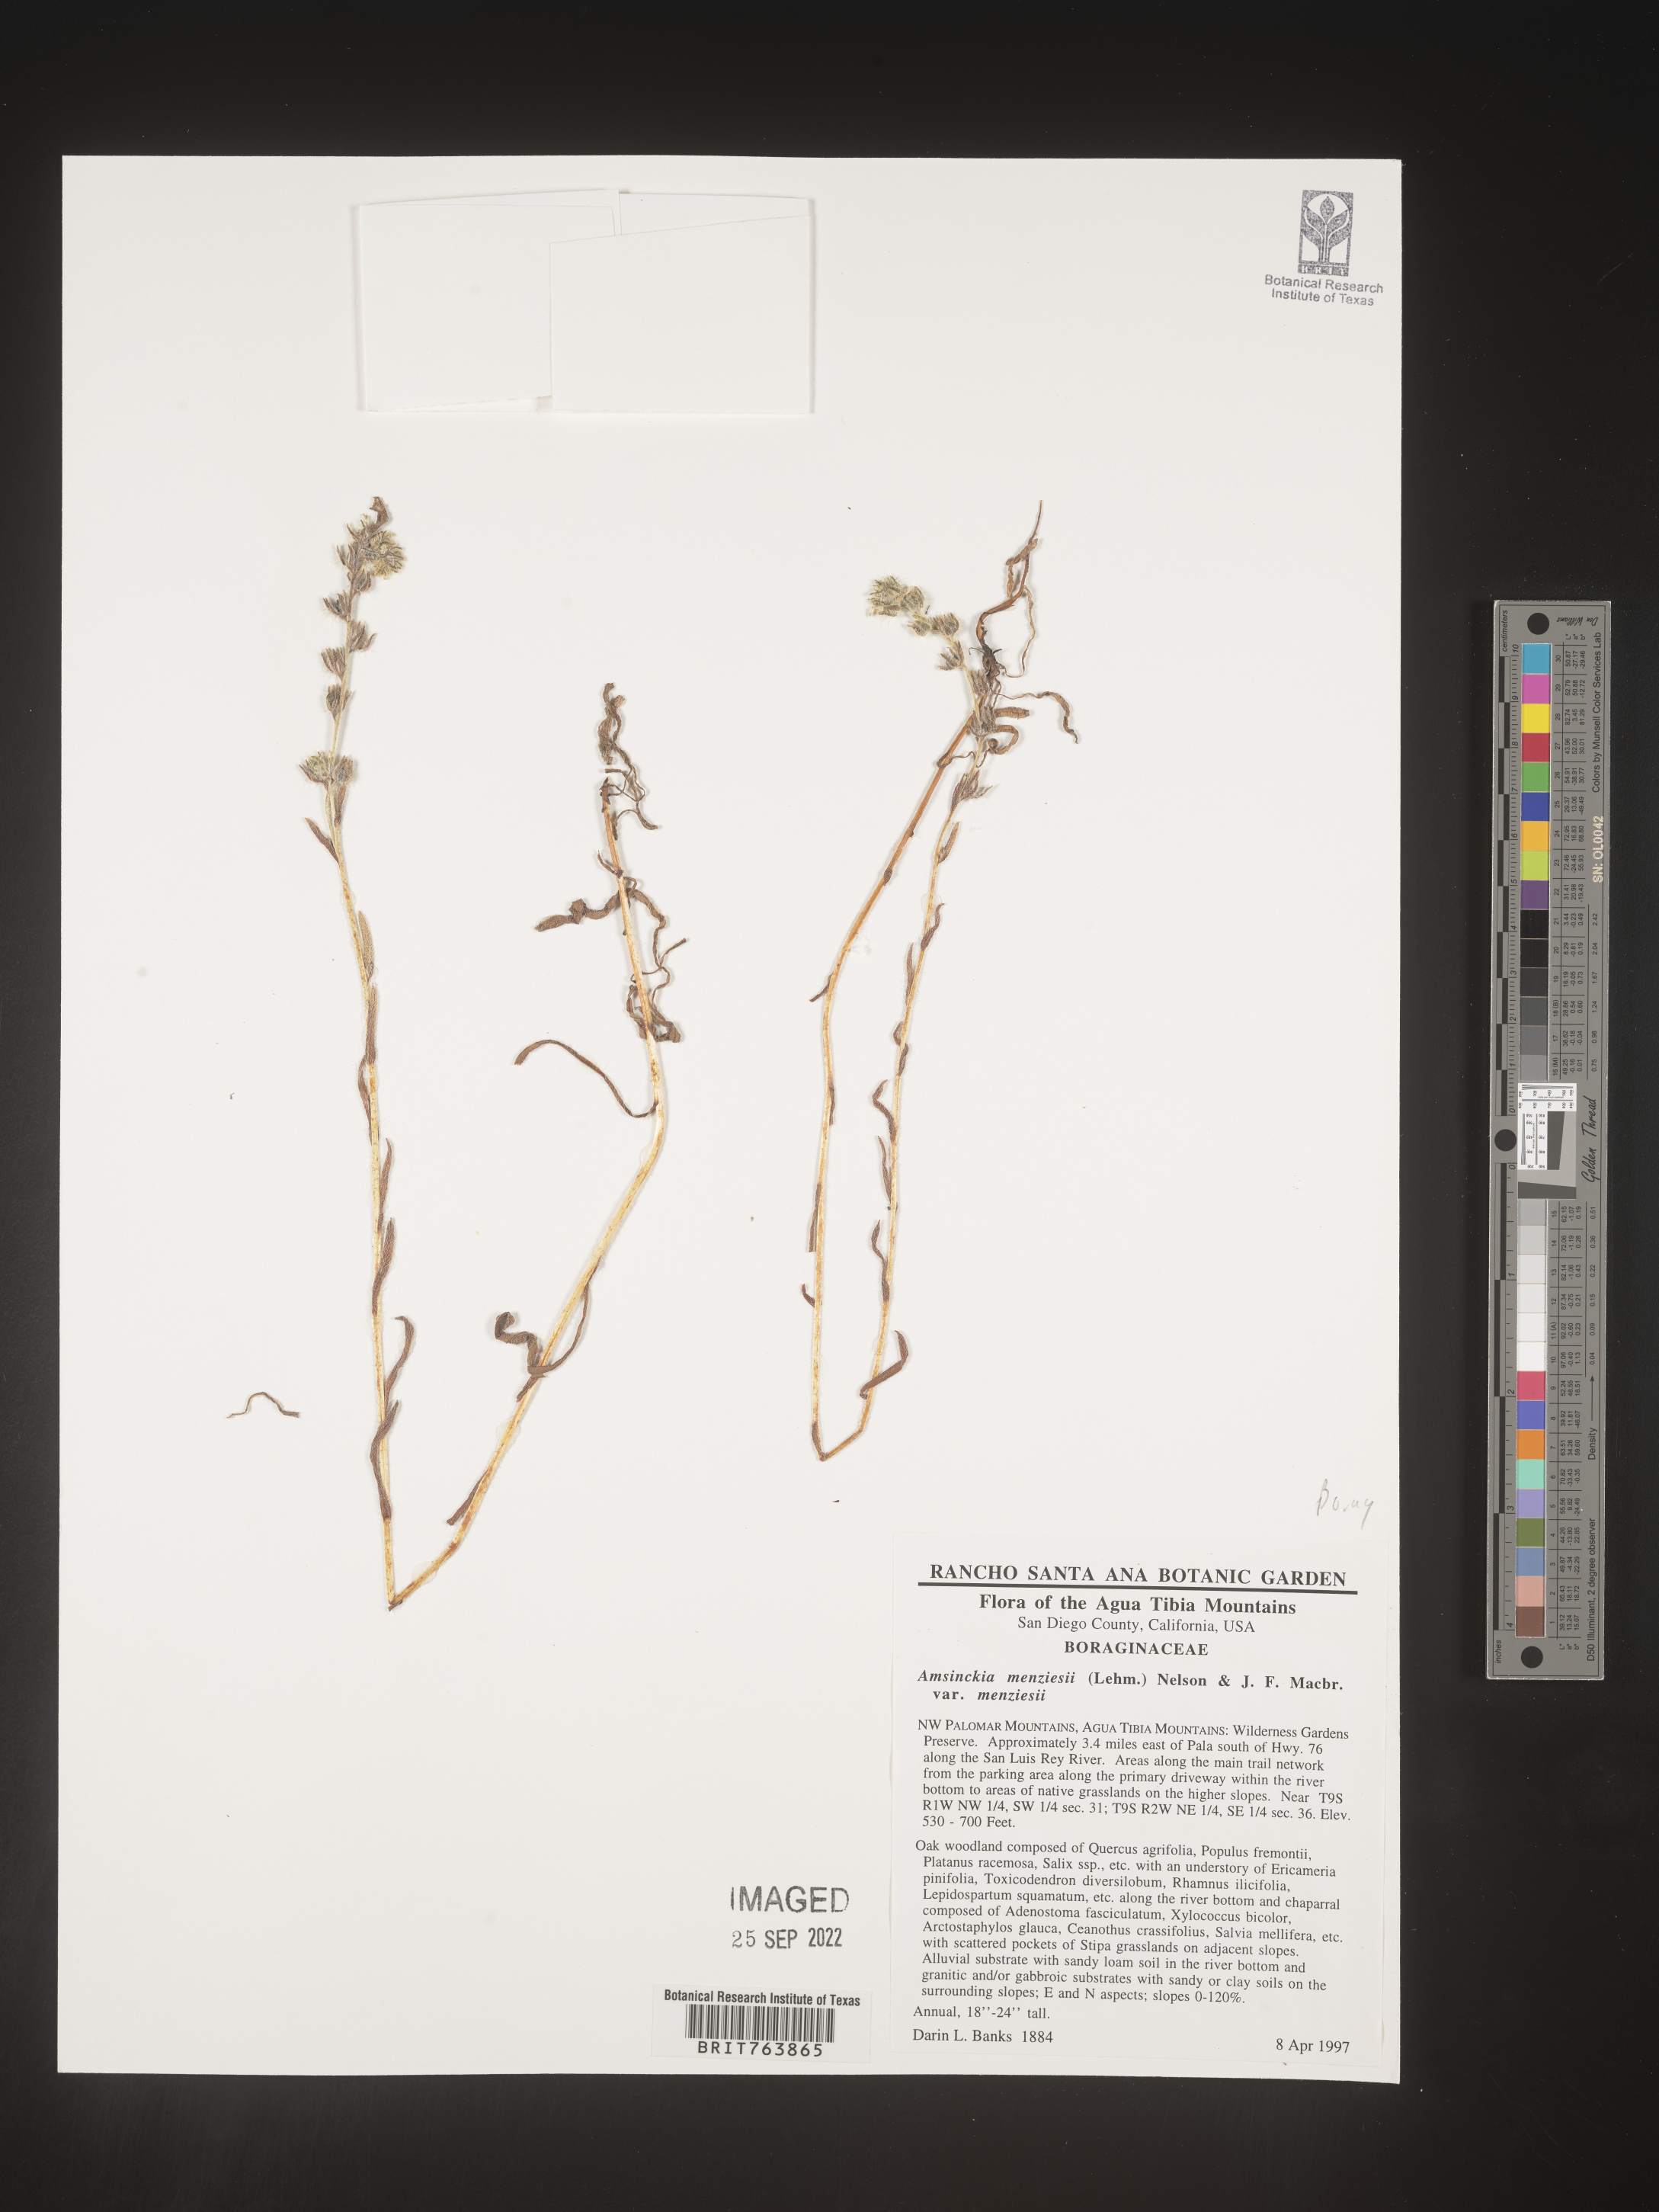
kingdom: Plantae
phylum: Tracheophyta
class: Magnoliopsida
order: Boraginales
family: Boraginaceae
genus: Amsinckia
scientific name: Amsinckia menziesii
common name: Menzies' fiddleneck
